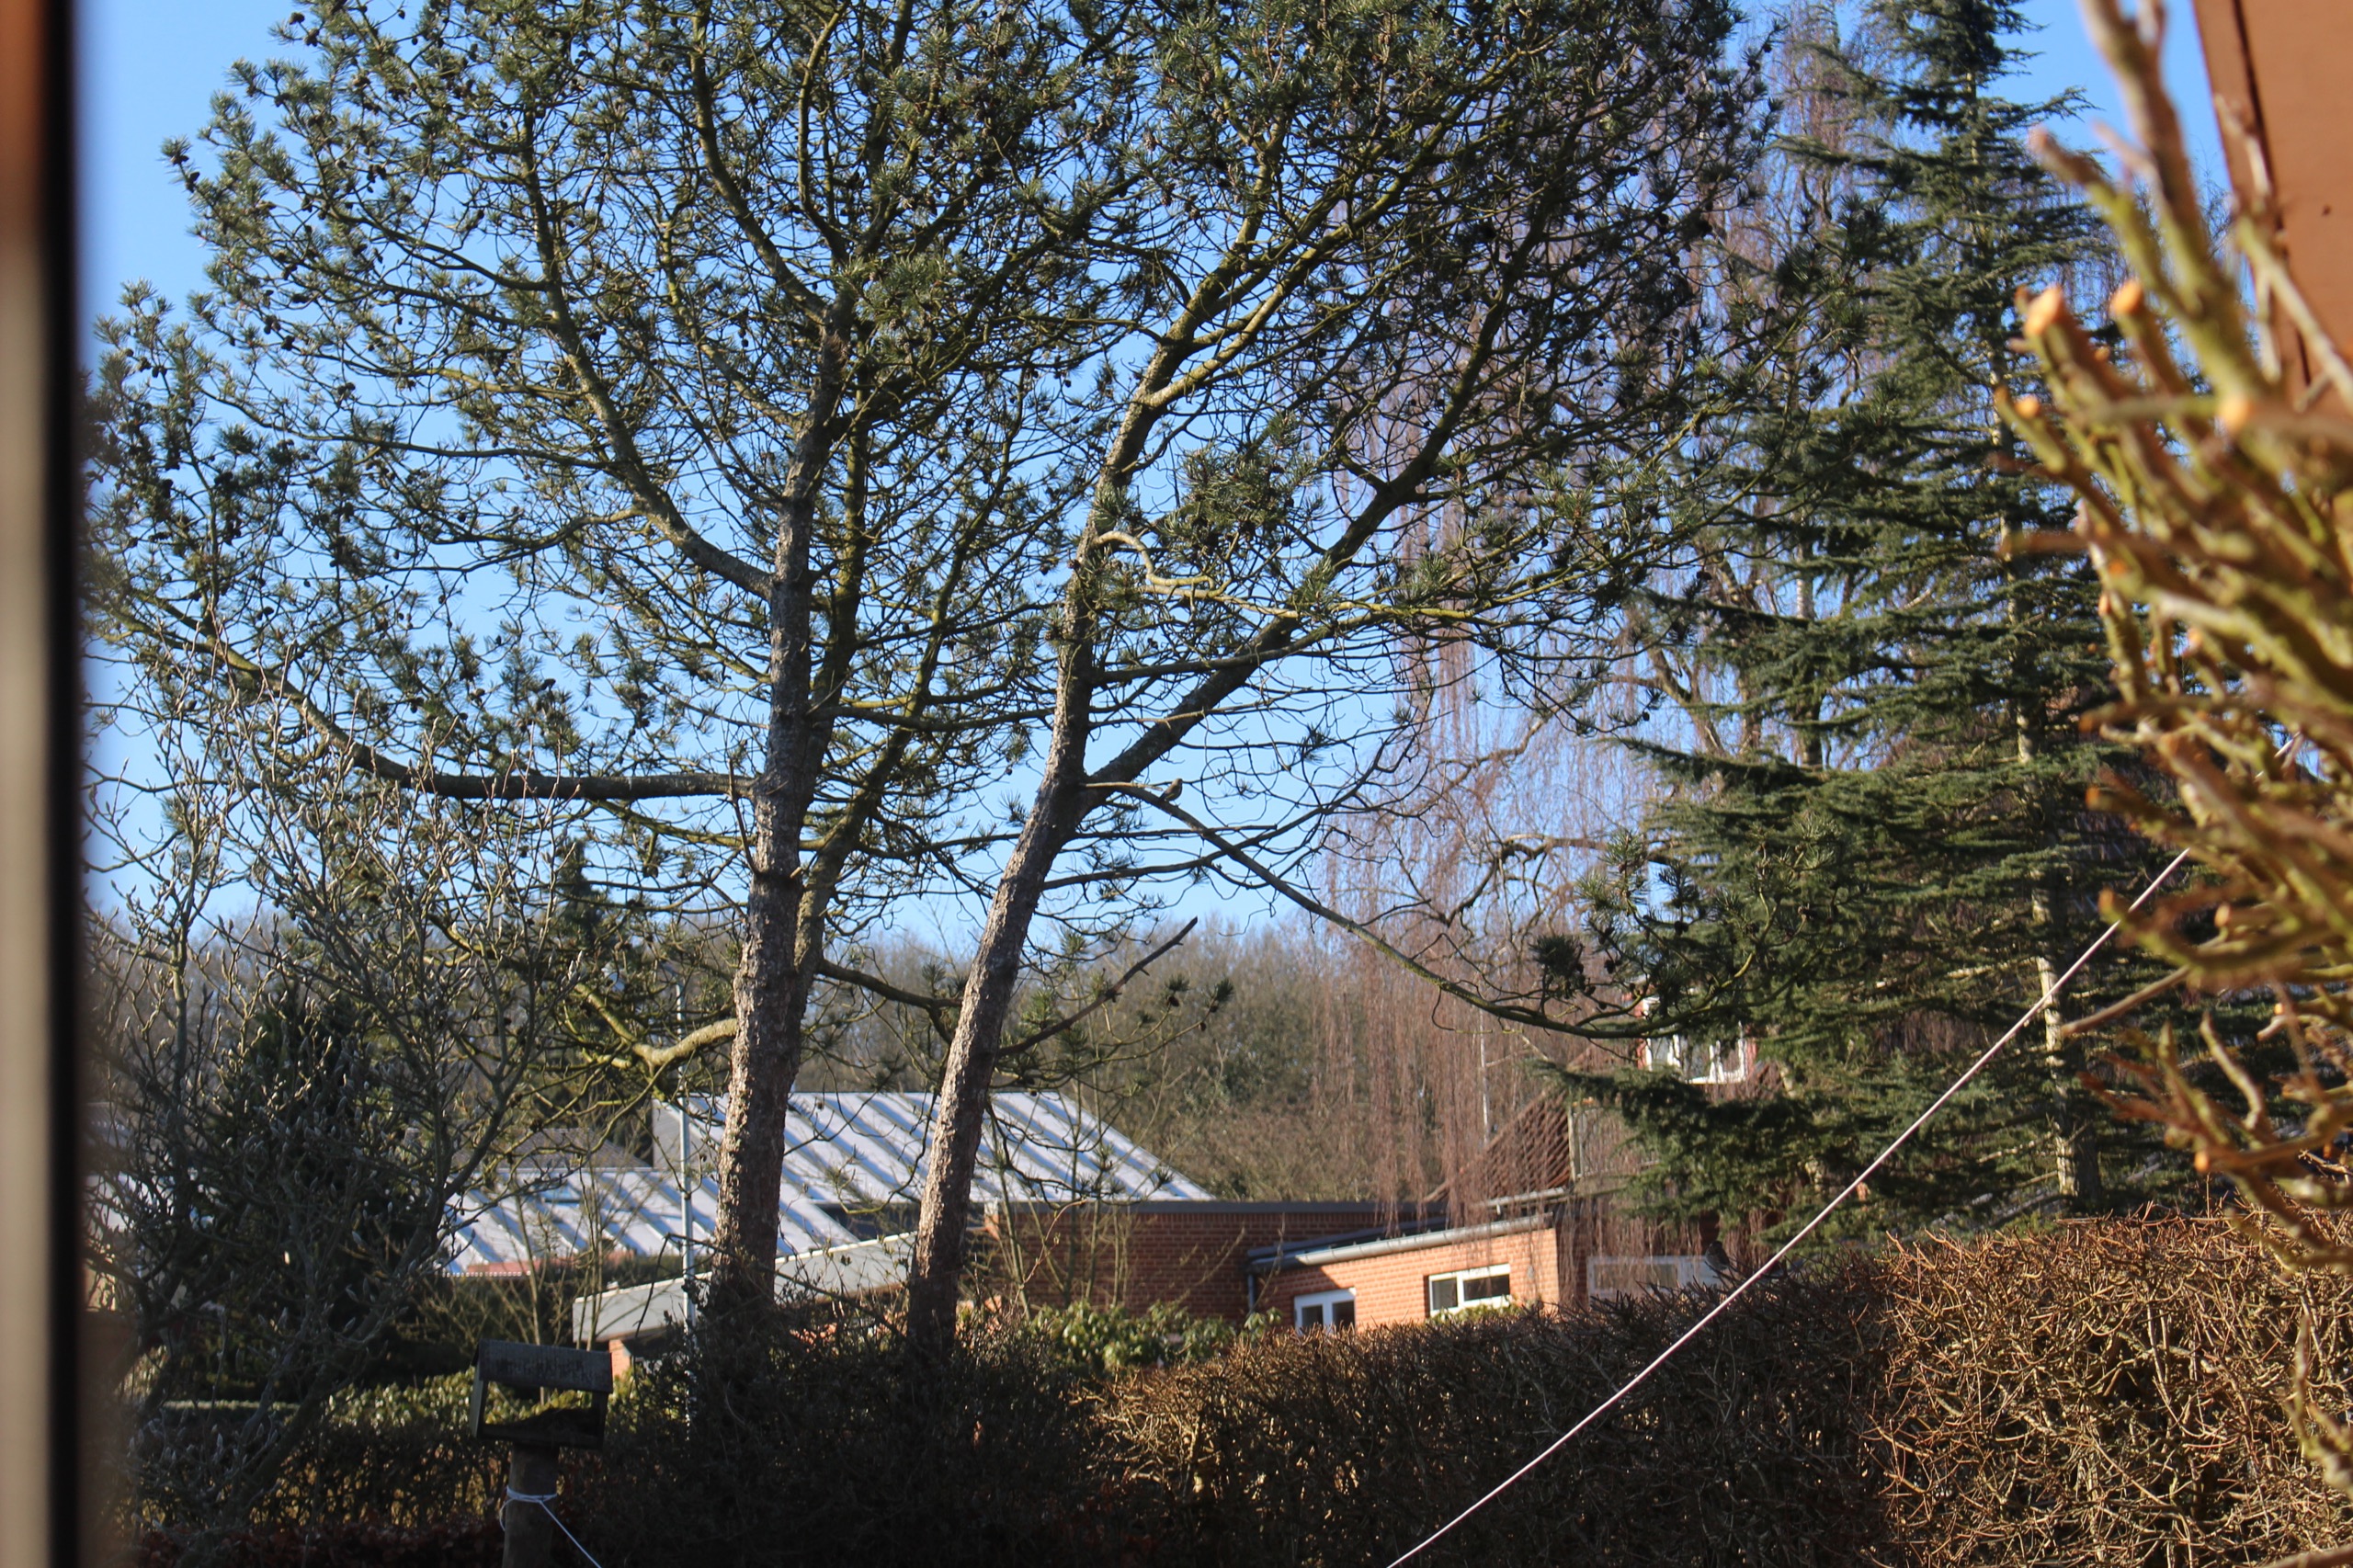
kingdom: Plantae
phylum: Tracheophyta
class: Liliopsida
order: Poales
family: Poaceae
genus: Chloris
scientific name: Chloris chloris
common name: Grønirisk
